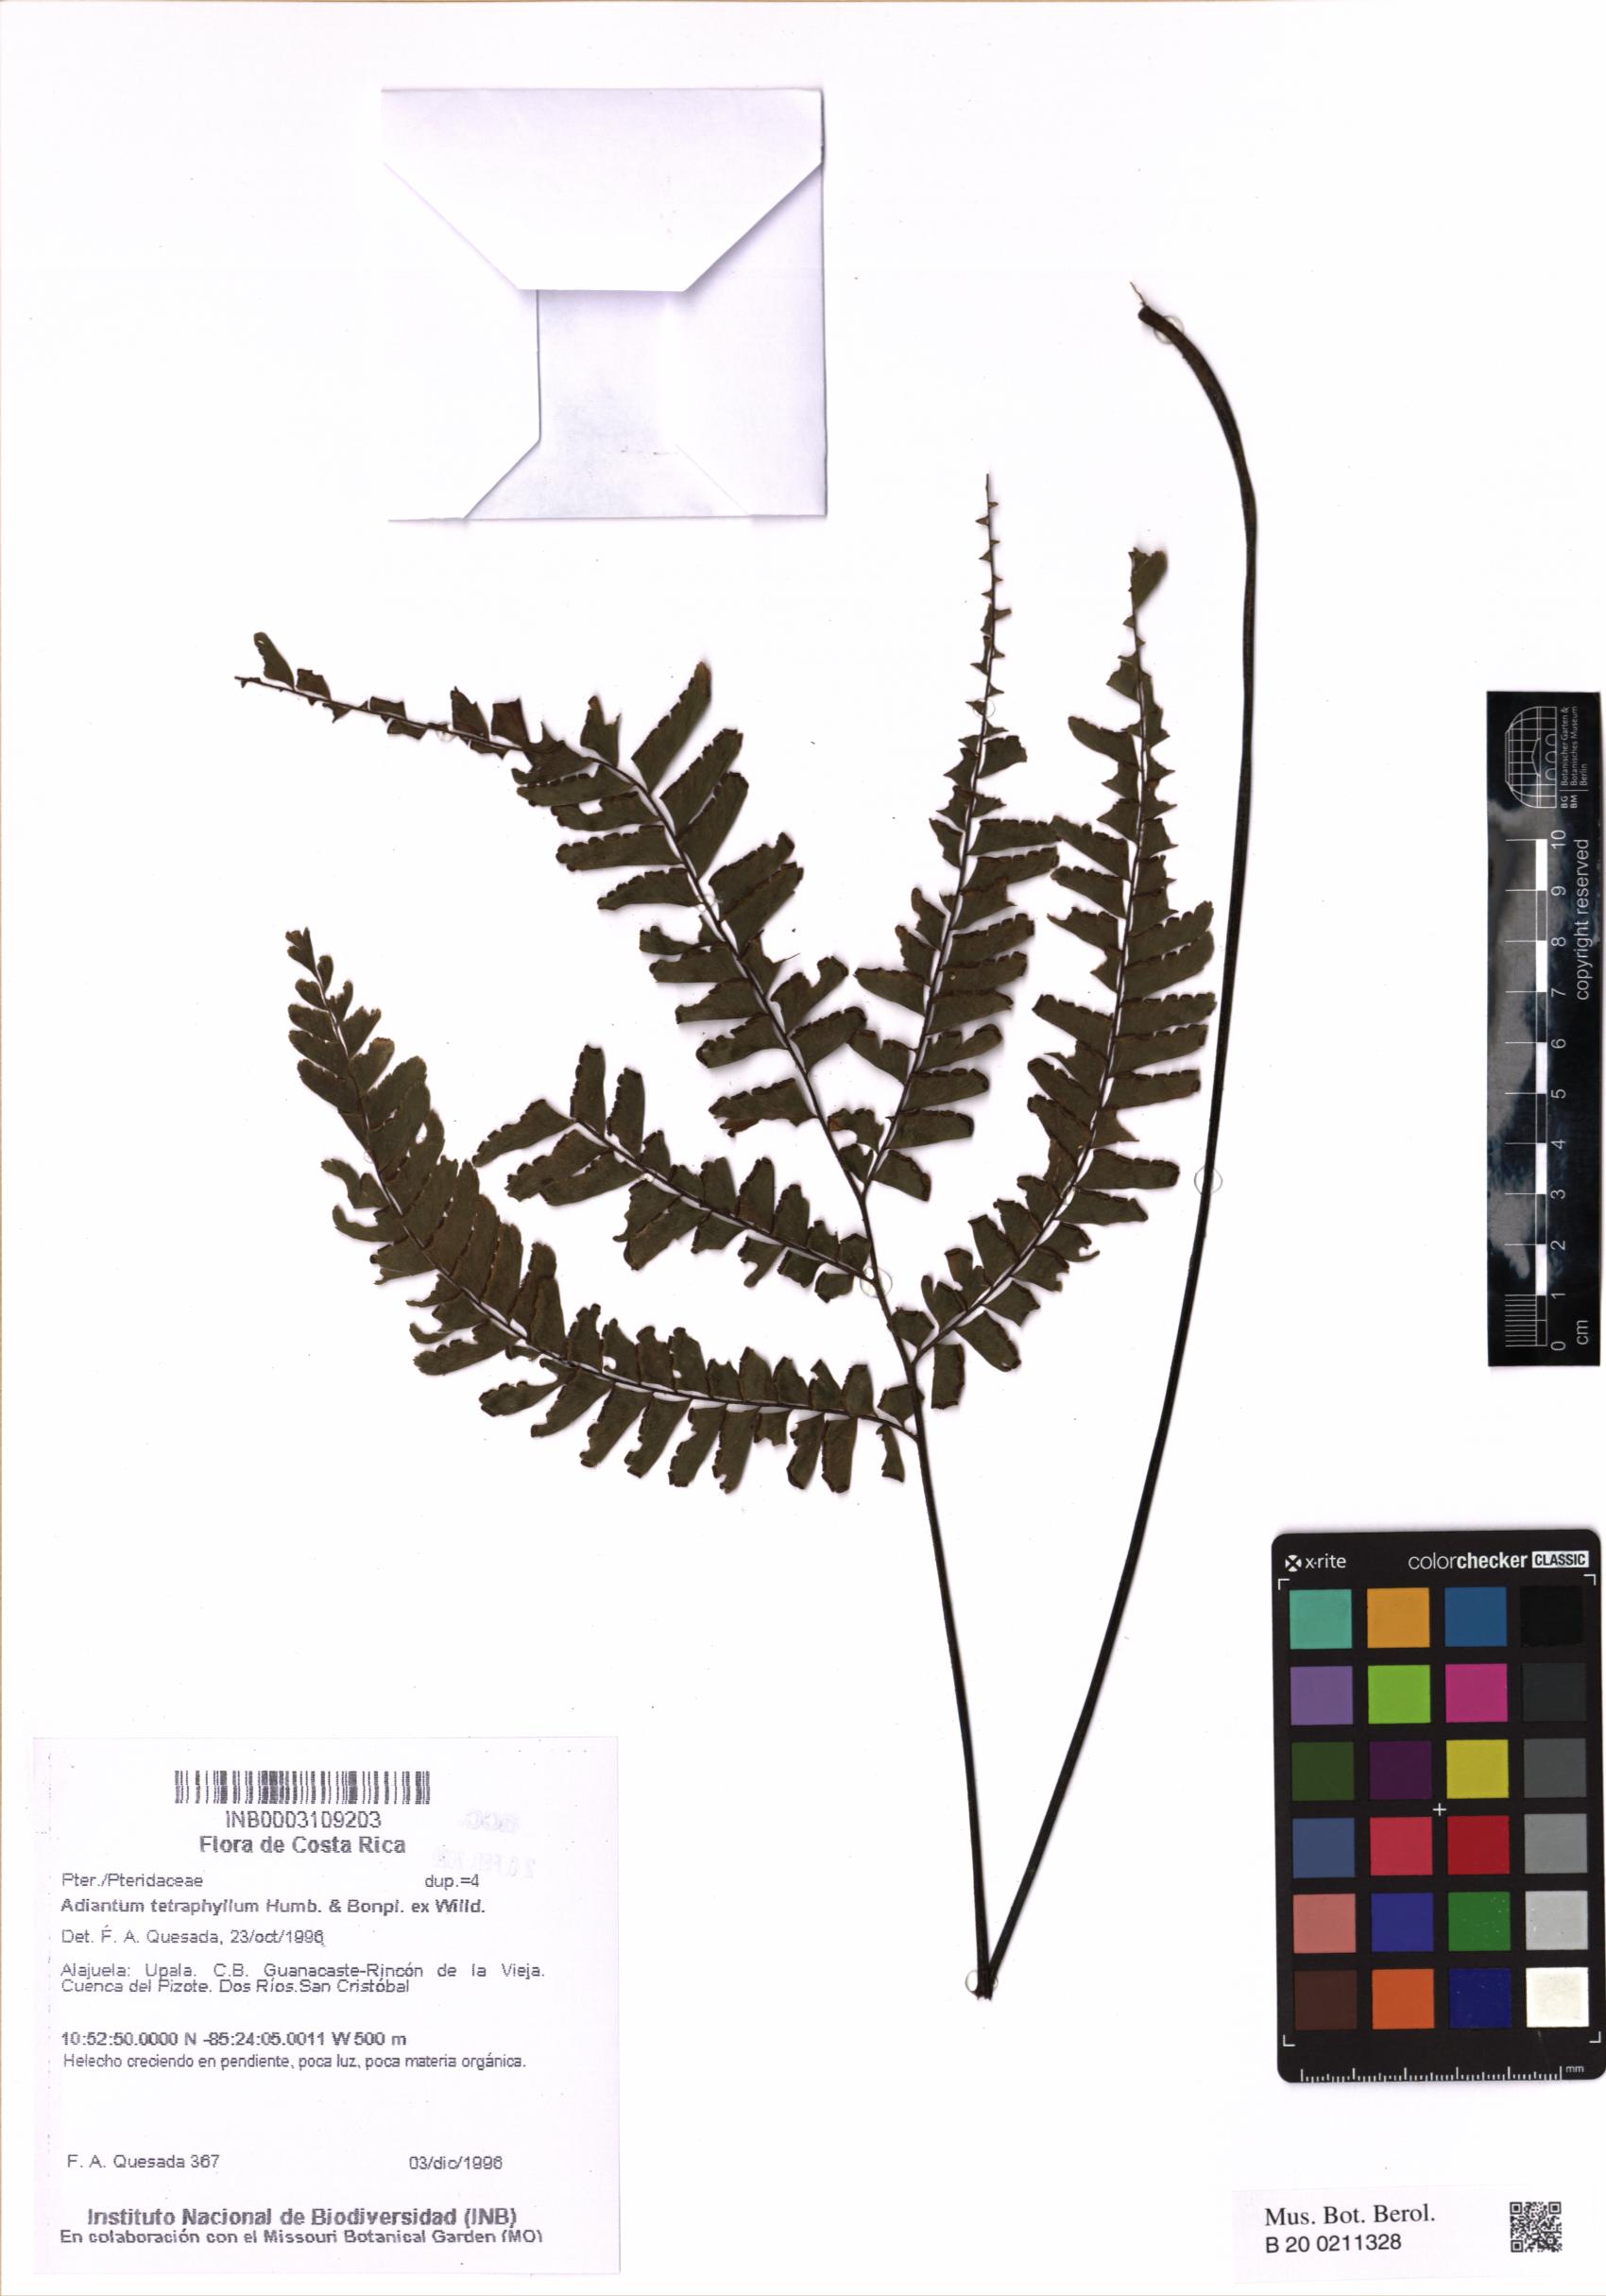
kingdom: Plantae
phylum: Tracheophyta
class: Polypodiopsida
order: Polypodiales
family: Pteridaceae
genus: Adiantum
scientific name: Adiantum tetraphyllum
